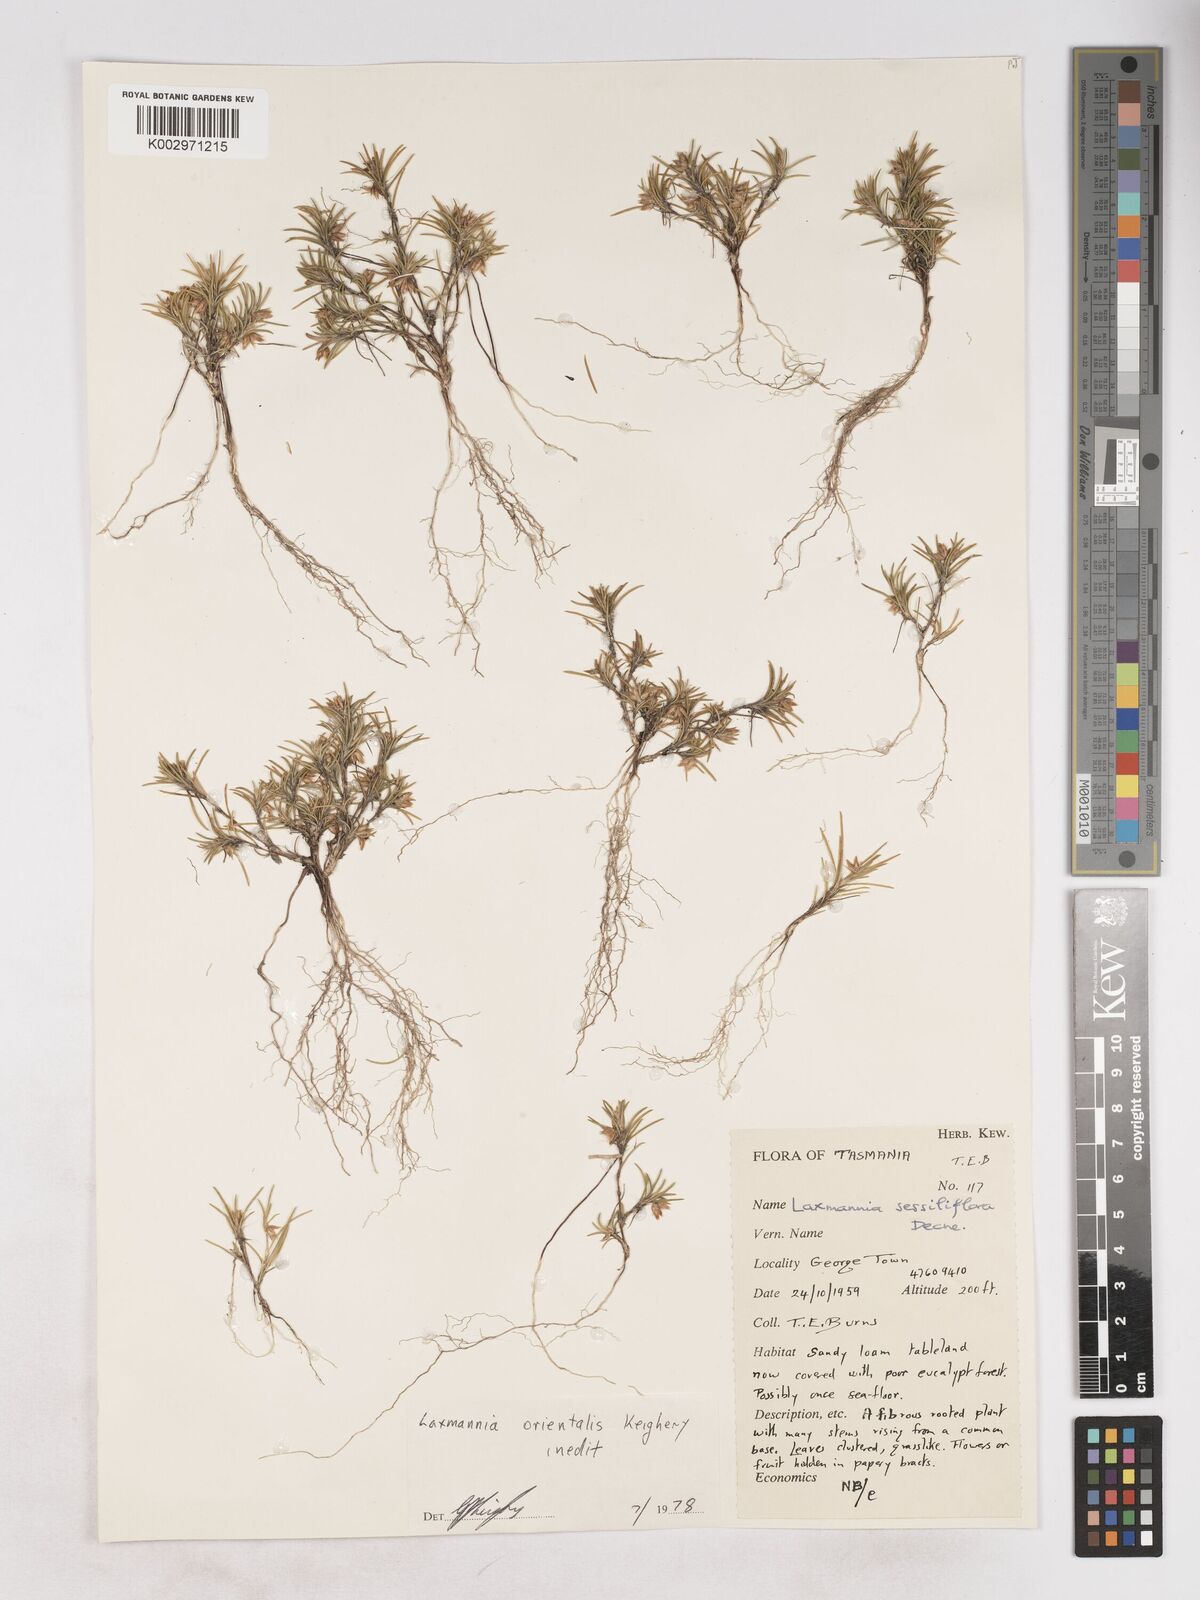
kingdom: Plantae
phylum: Tracheophyta
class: Liliopsida
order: Asparagales
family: Asparagaceae
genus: Laxmannia
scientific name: Laxmannia orientalis
